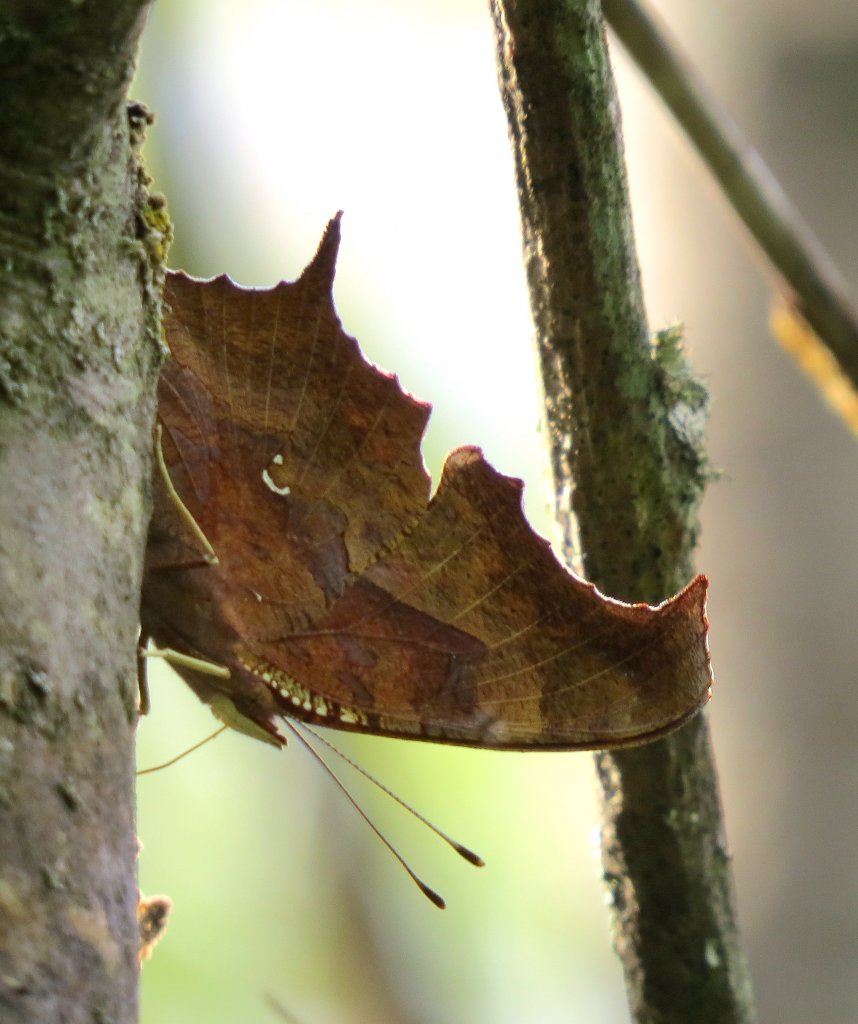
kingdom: Animalia
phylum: Arthropoda
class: Insecta
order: Lepidoptera
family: Nymphalidae
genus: Polygonia
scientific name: Polygonia interrogationis
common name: Question Mark
